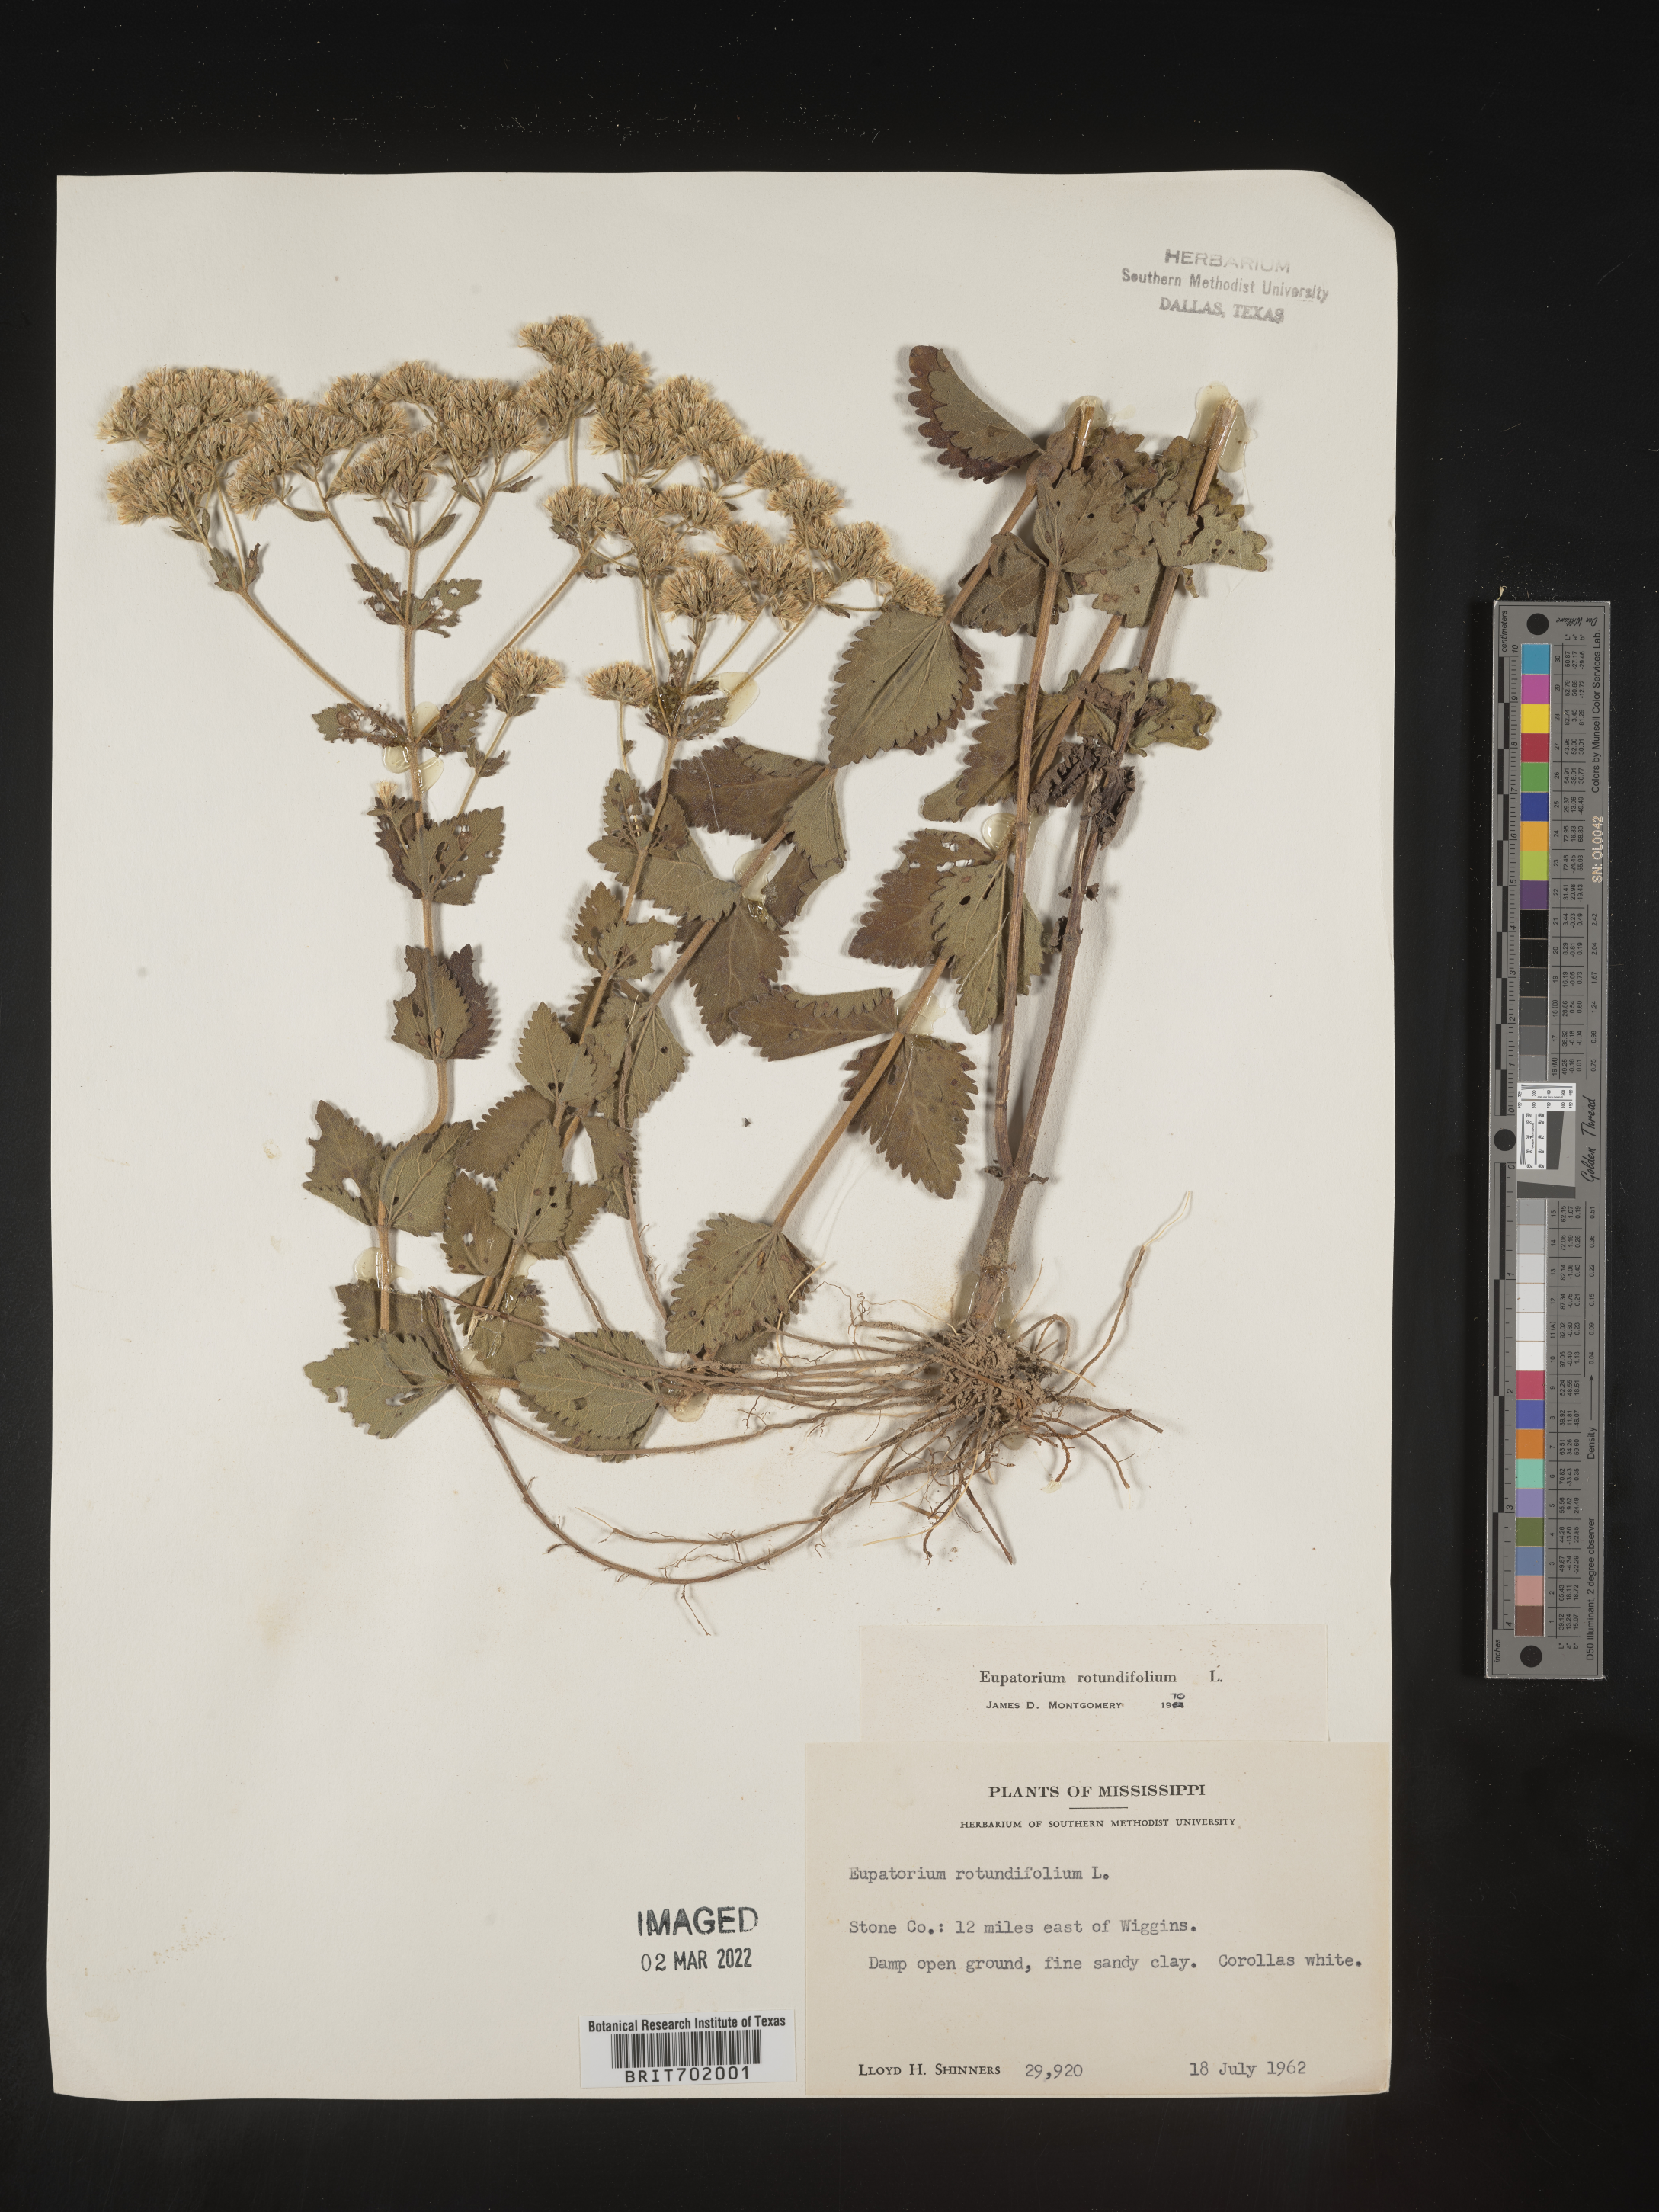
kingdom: Plantae
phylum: Tracheophyta
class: Magnoliopsida
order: Asterales
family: Asteraceae
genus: Eupatorium
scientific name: Eupatorium rotundifolium
